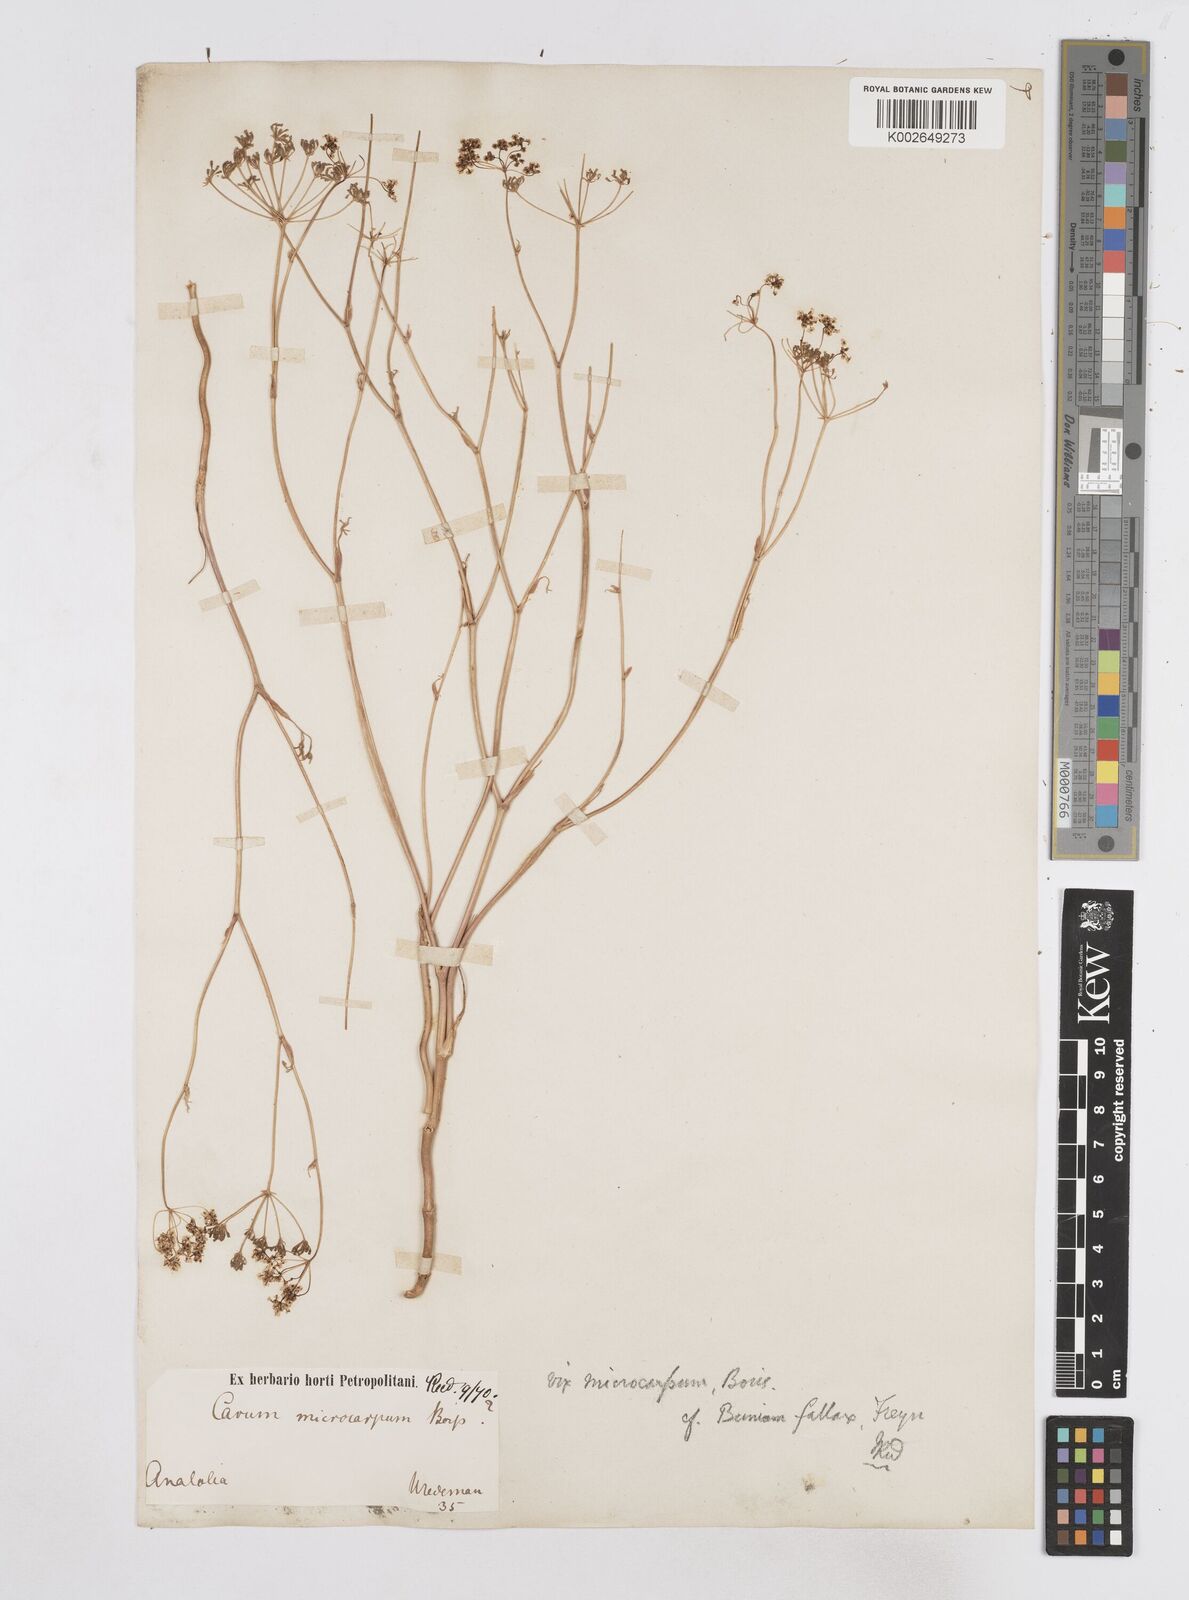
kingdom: Plantae
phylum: Tracheophyta
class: Magnoliopsida
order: Apiales
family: Apiaceae
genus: Bunium
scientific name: Bunium bourgaei
